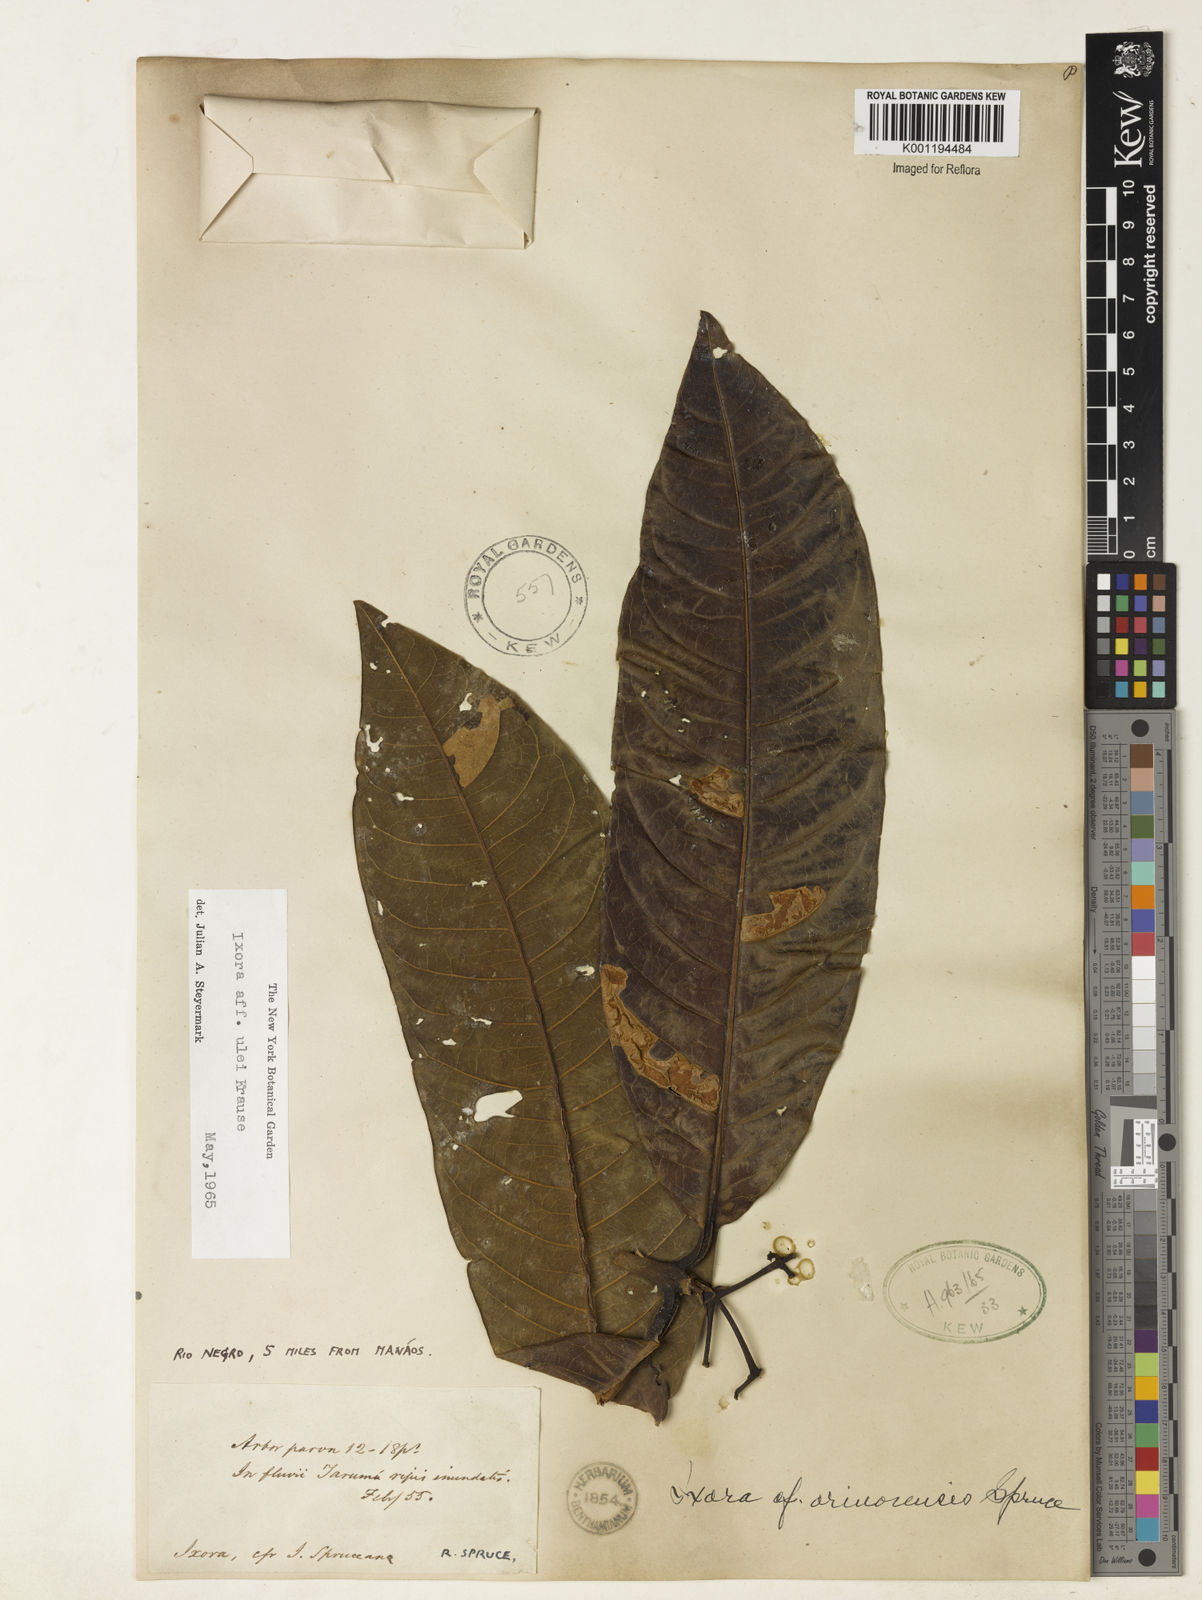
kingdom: Plantae
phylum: Tracheophyta
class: Magnoliopsida
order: Gentianales
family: Rubiaceae
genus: Ixora
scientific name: Ixora sparsifolia
